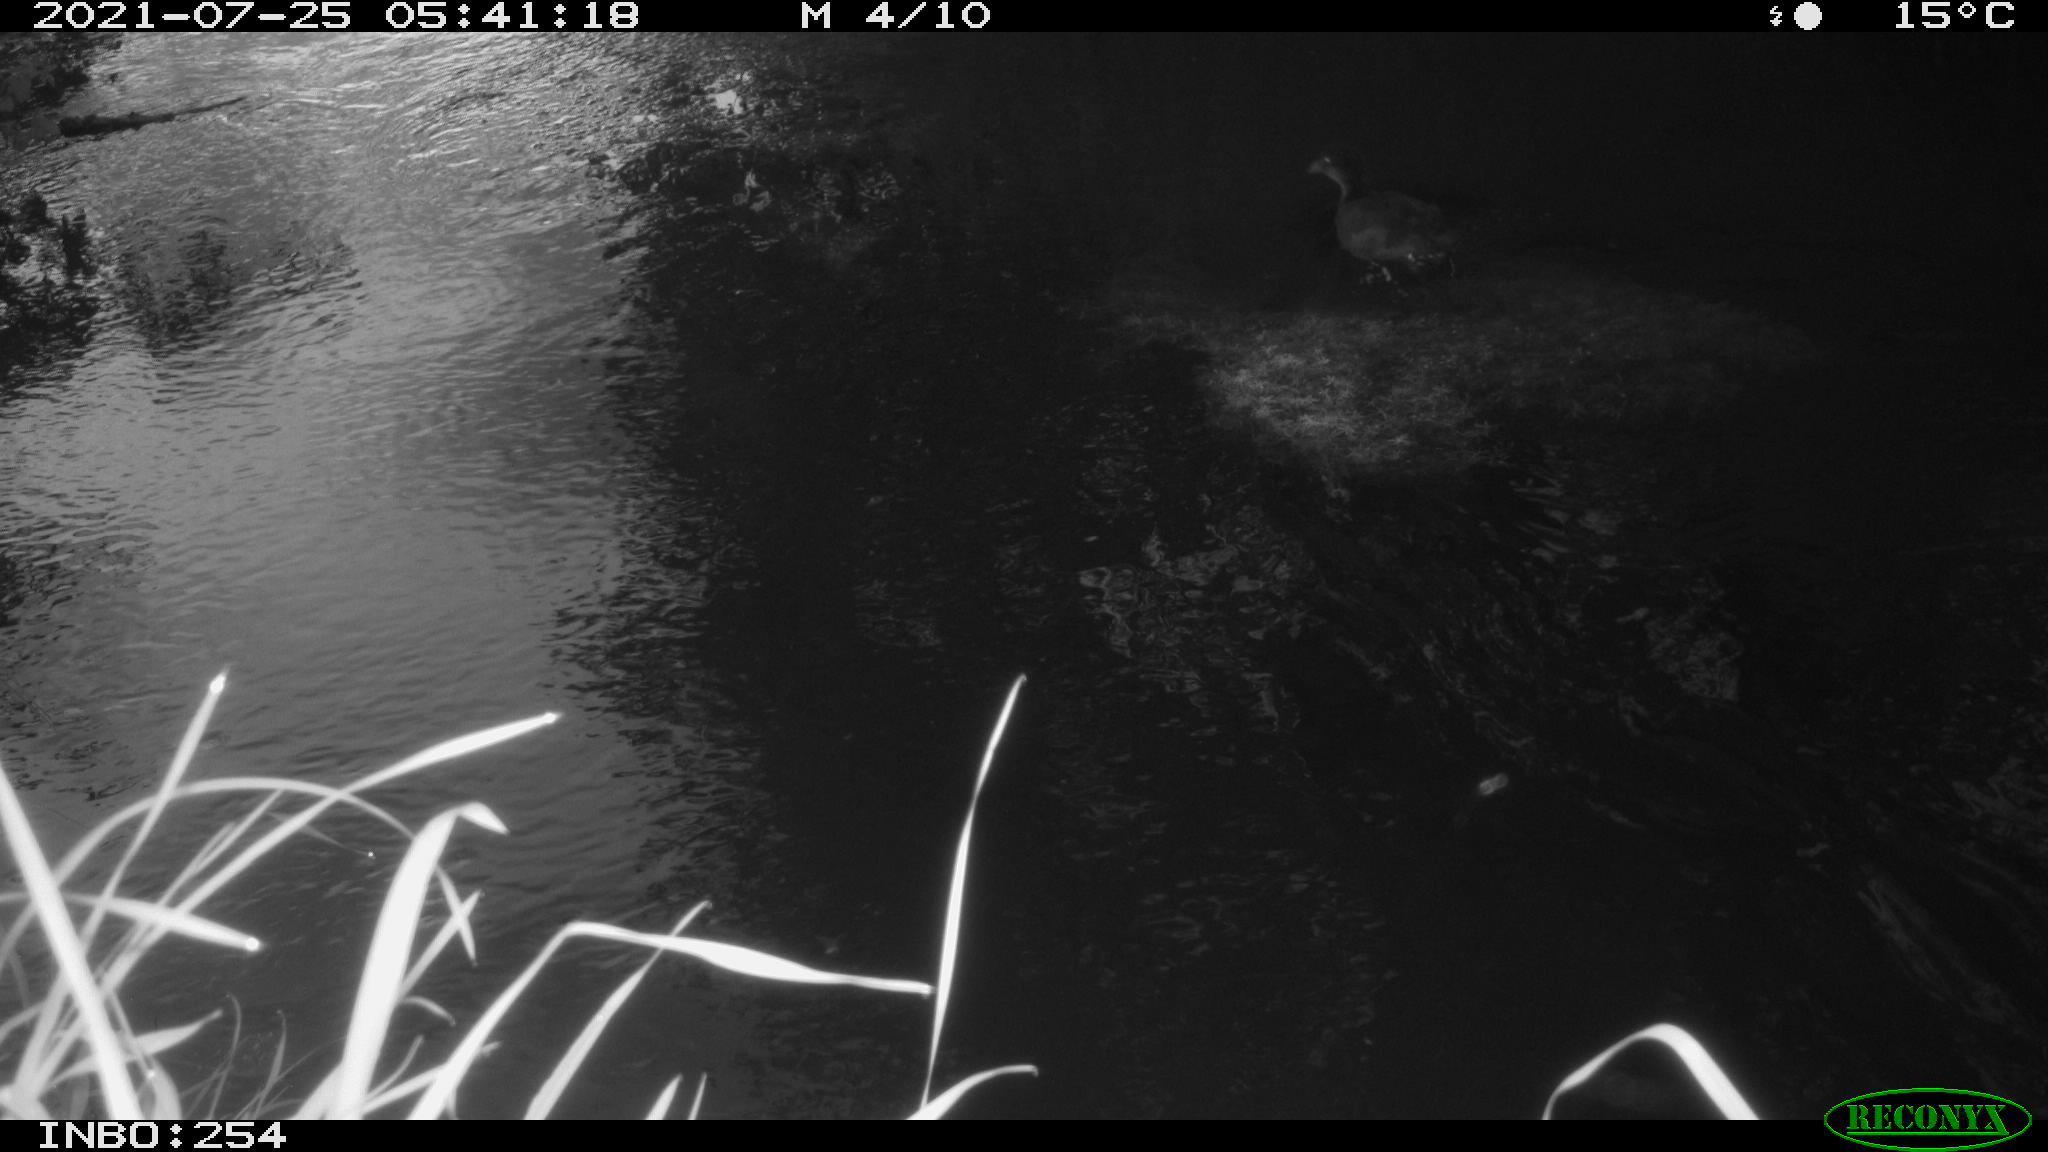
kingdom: Animalia
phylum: Chordata
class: Aves
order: Gruiformes
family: Rallidae
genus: Gallinula
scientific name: Gallinula chloropus
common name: Common moorhen
